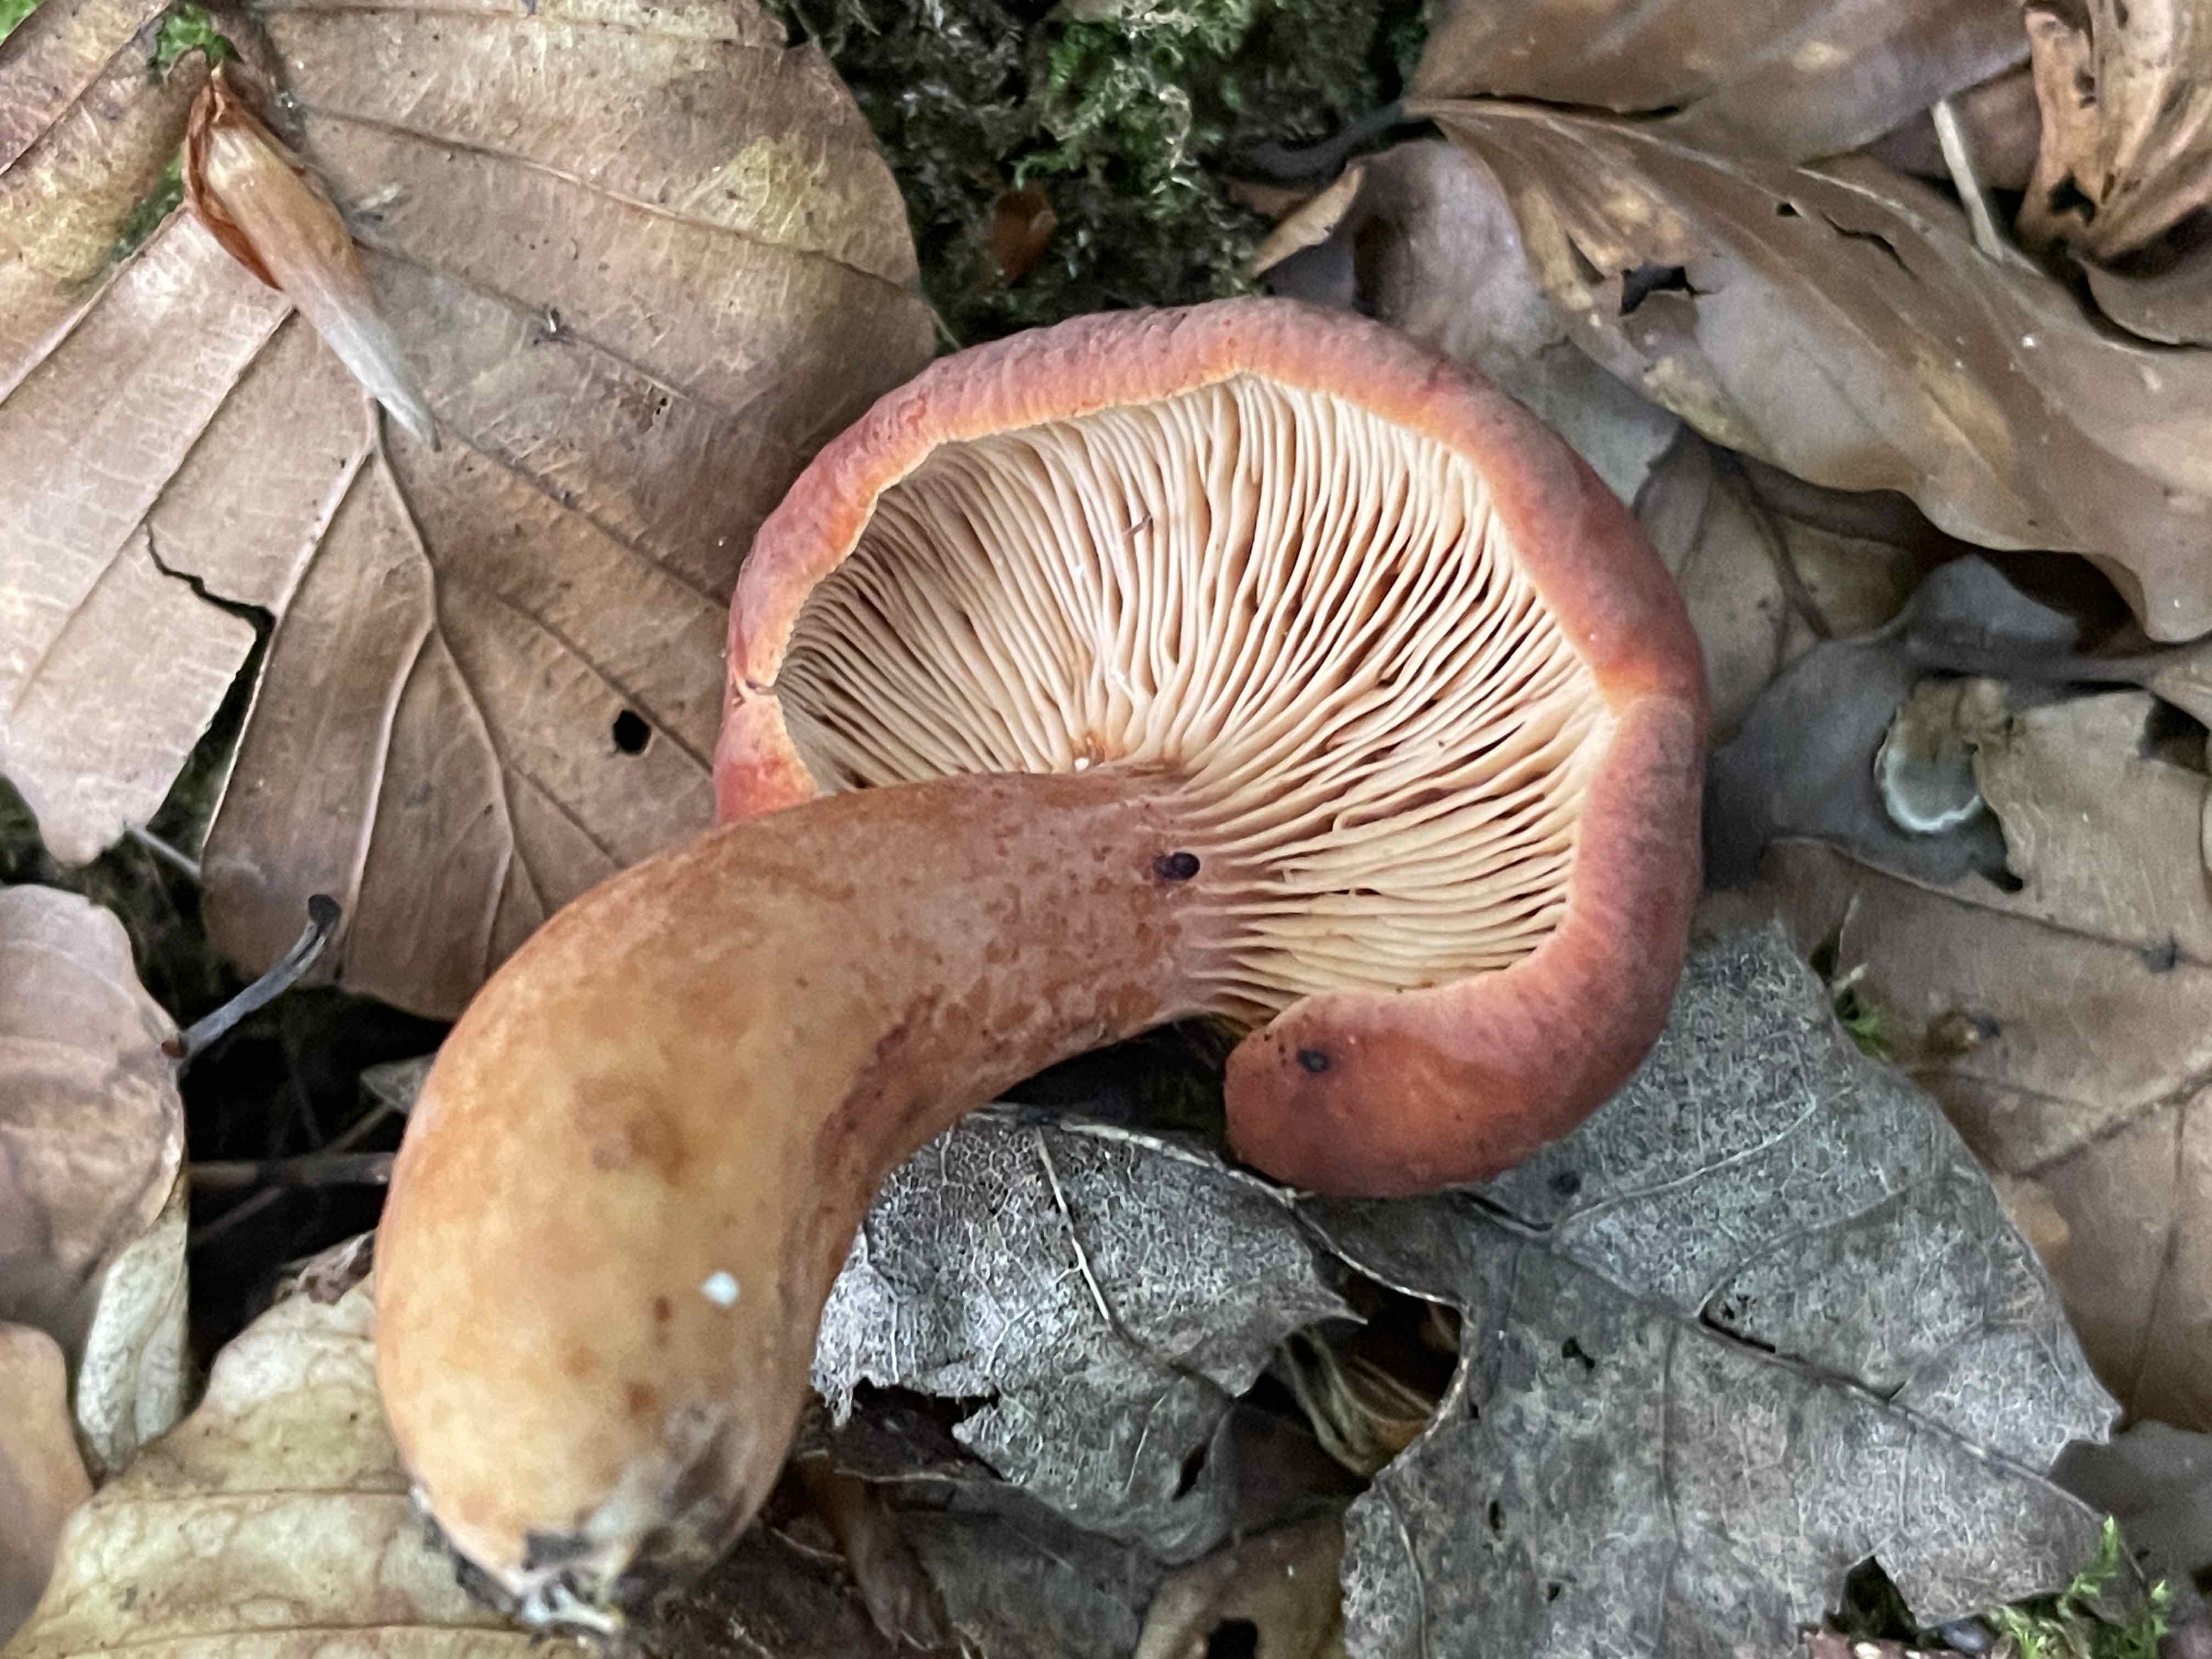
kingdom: Fungi
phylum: Basidiomycota
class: Agaricomycetes
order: Russulales
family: Russulaceae
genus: Lactarius
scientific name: Lactarius fulvissimus
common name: ræve-mælkehat
